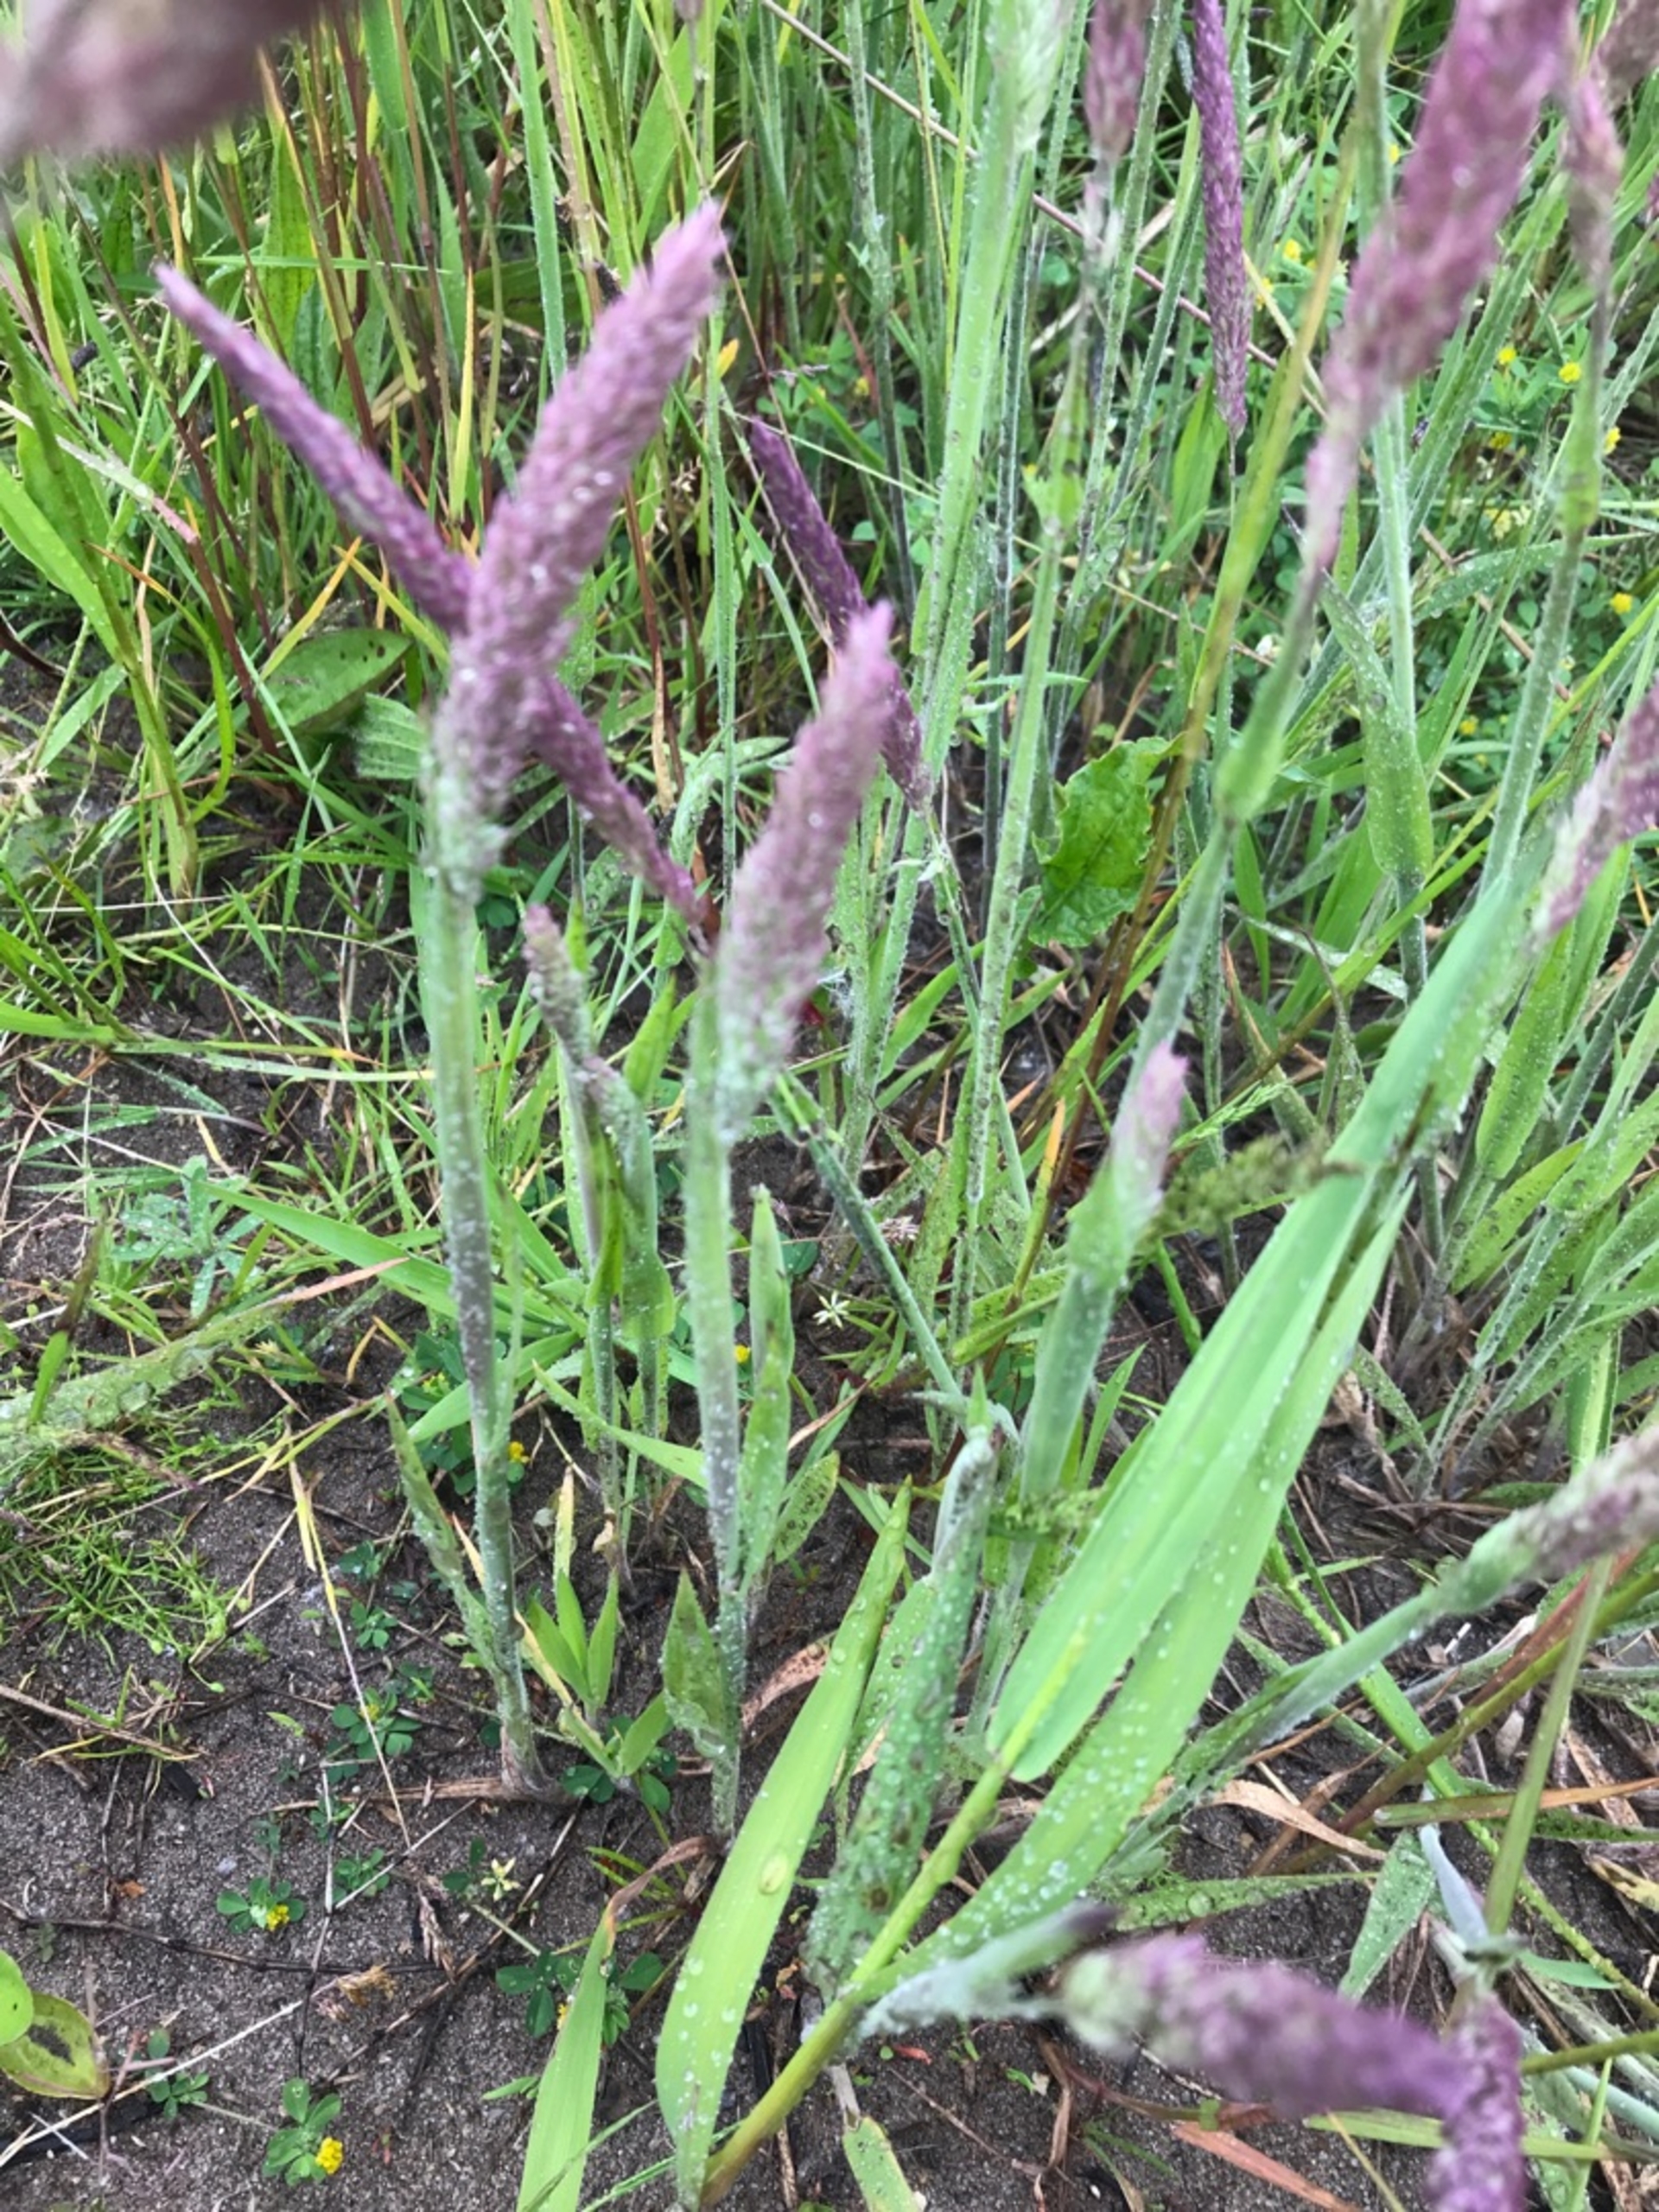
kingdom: Plantae
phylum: Tracheophyta
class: Liliopsida
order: Poales
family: Poaceae
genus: Holcus
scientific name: Holcus lanatus
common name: Fløjlsgræs
